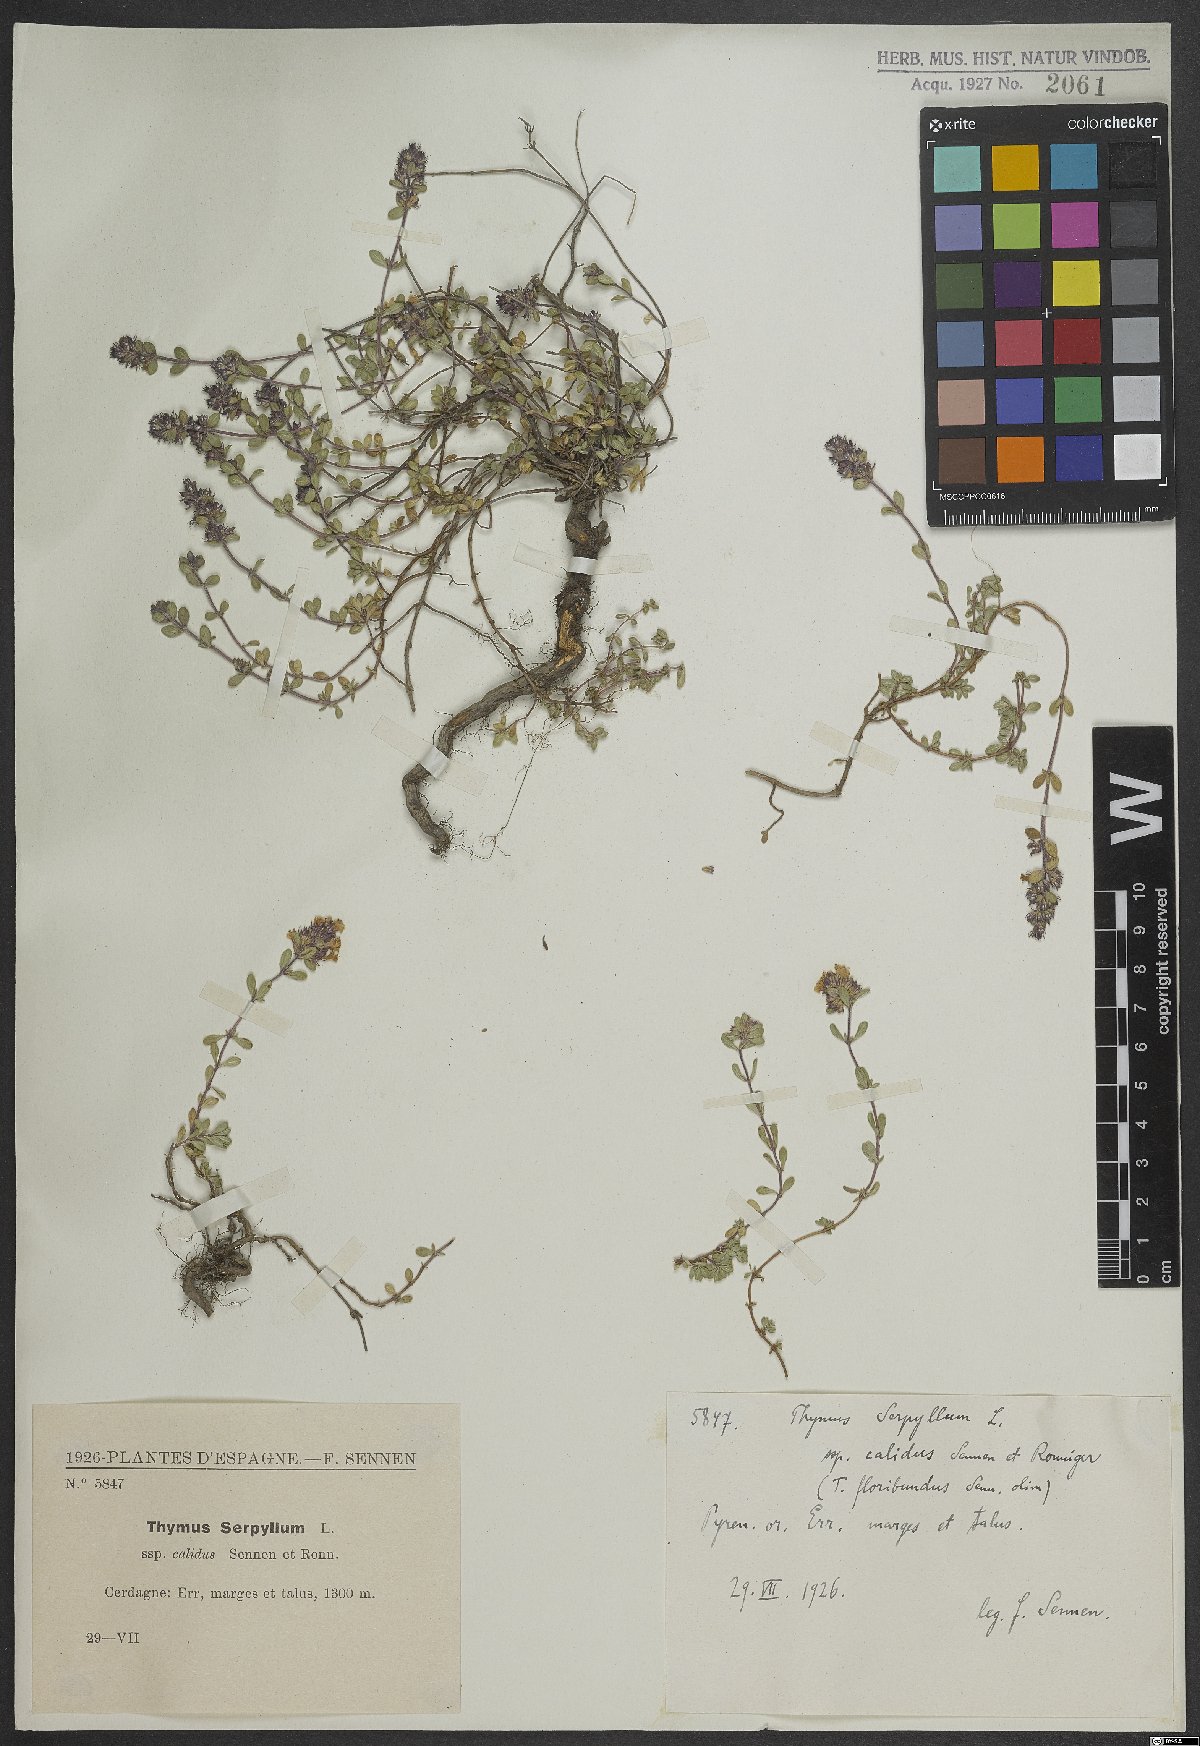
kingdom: Plantae
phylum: Tracheophyta
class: Magnoliopsida
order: Lamiales
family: Lamiaceae
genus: Thymus
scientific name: Thymus serpyllum
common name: Breckland thyme
